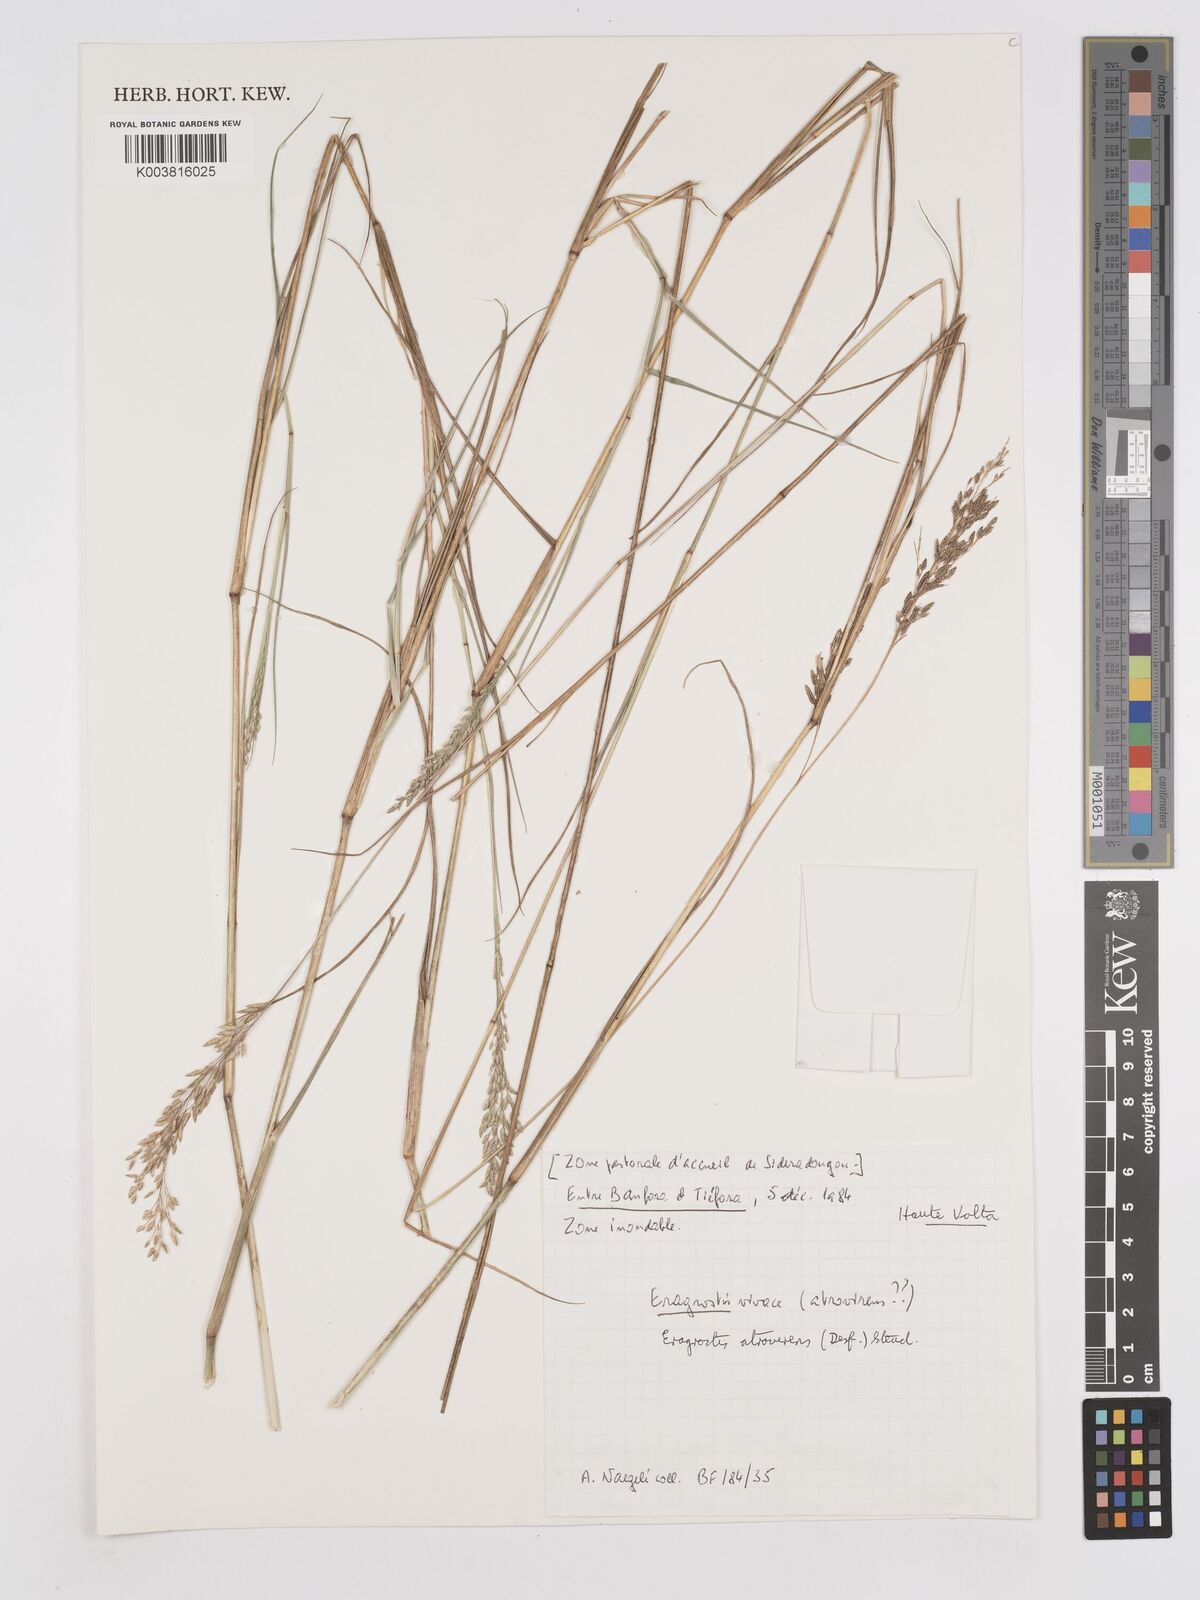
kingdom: Plantae
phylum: Tracheophyta
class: Liliopsida
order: Poales
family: Poaceae
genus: Eragrostis
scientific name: Eragrostis atrovirens
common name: Thalia lovegrass
